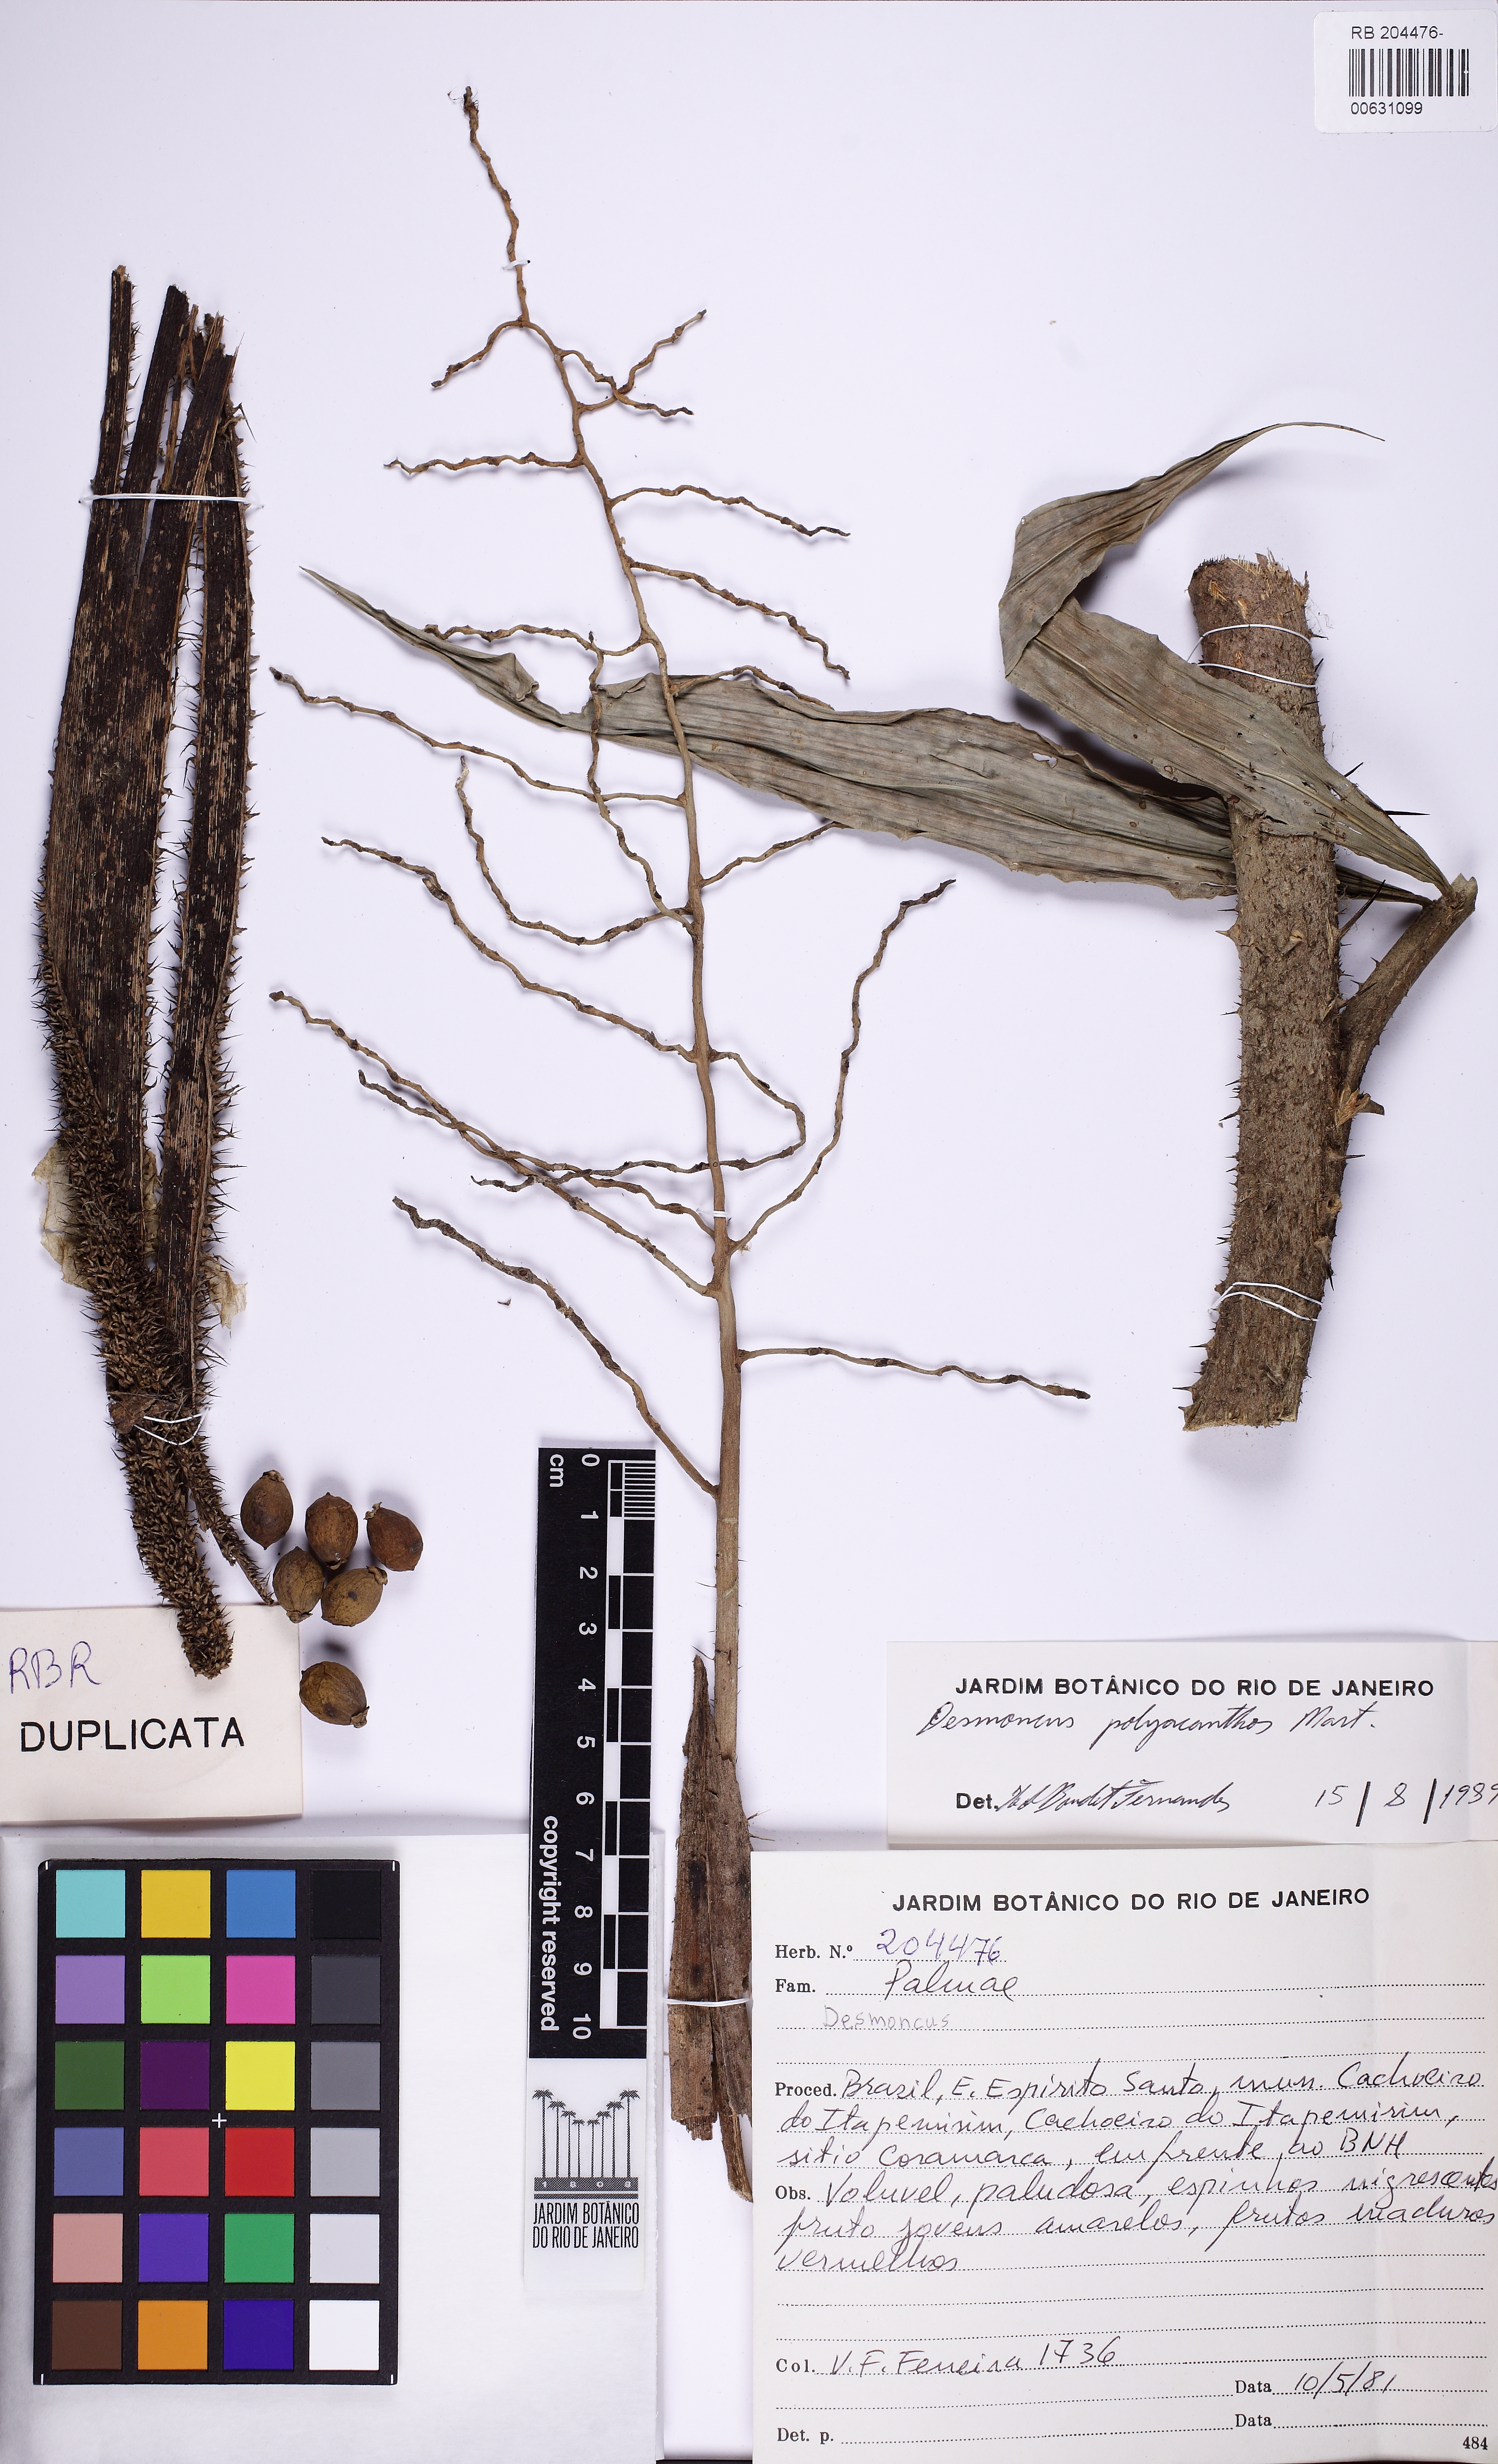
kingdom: Plantae
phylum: Tracheophyta
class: Liliopsida
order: Arecales
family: Arecaceae
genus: Desmoncus
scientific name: Desmoncus polyacanthos
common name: Suriname bramble palm
